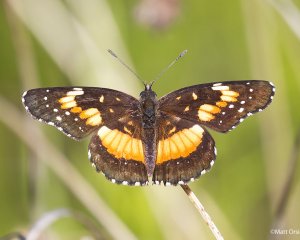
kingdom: Animalia
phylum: Arthropoda
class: Insecta
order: Lepidoptera
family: Nymphalidae
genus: Chlosyne
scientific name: Chlosyne lacinia
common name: Bordered Patch
